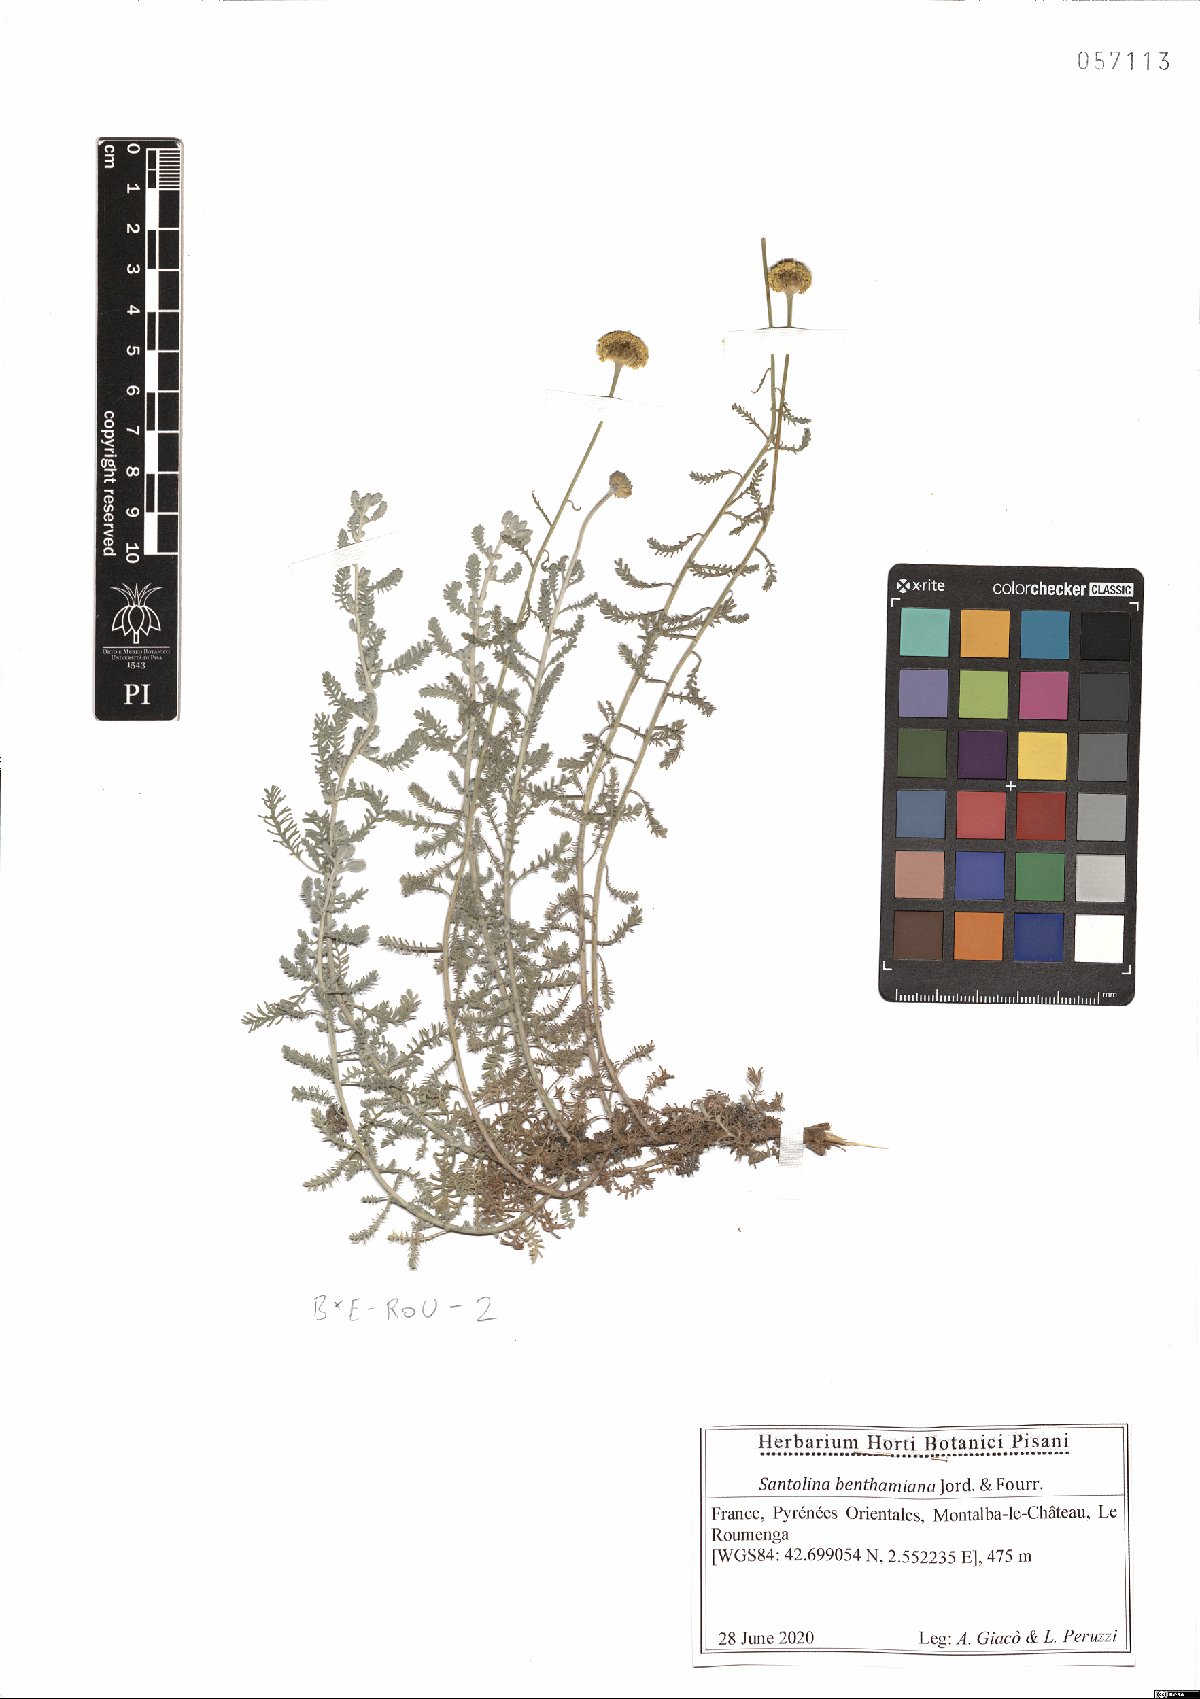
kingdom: Plantae
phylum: Tracheophyta
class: Magnoliopsida
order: Asterales
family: Asteraceae
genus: Santolina
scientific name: Santolina benthamiana
